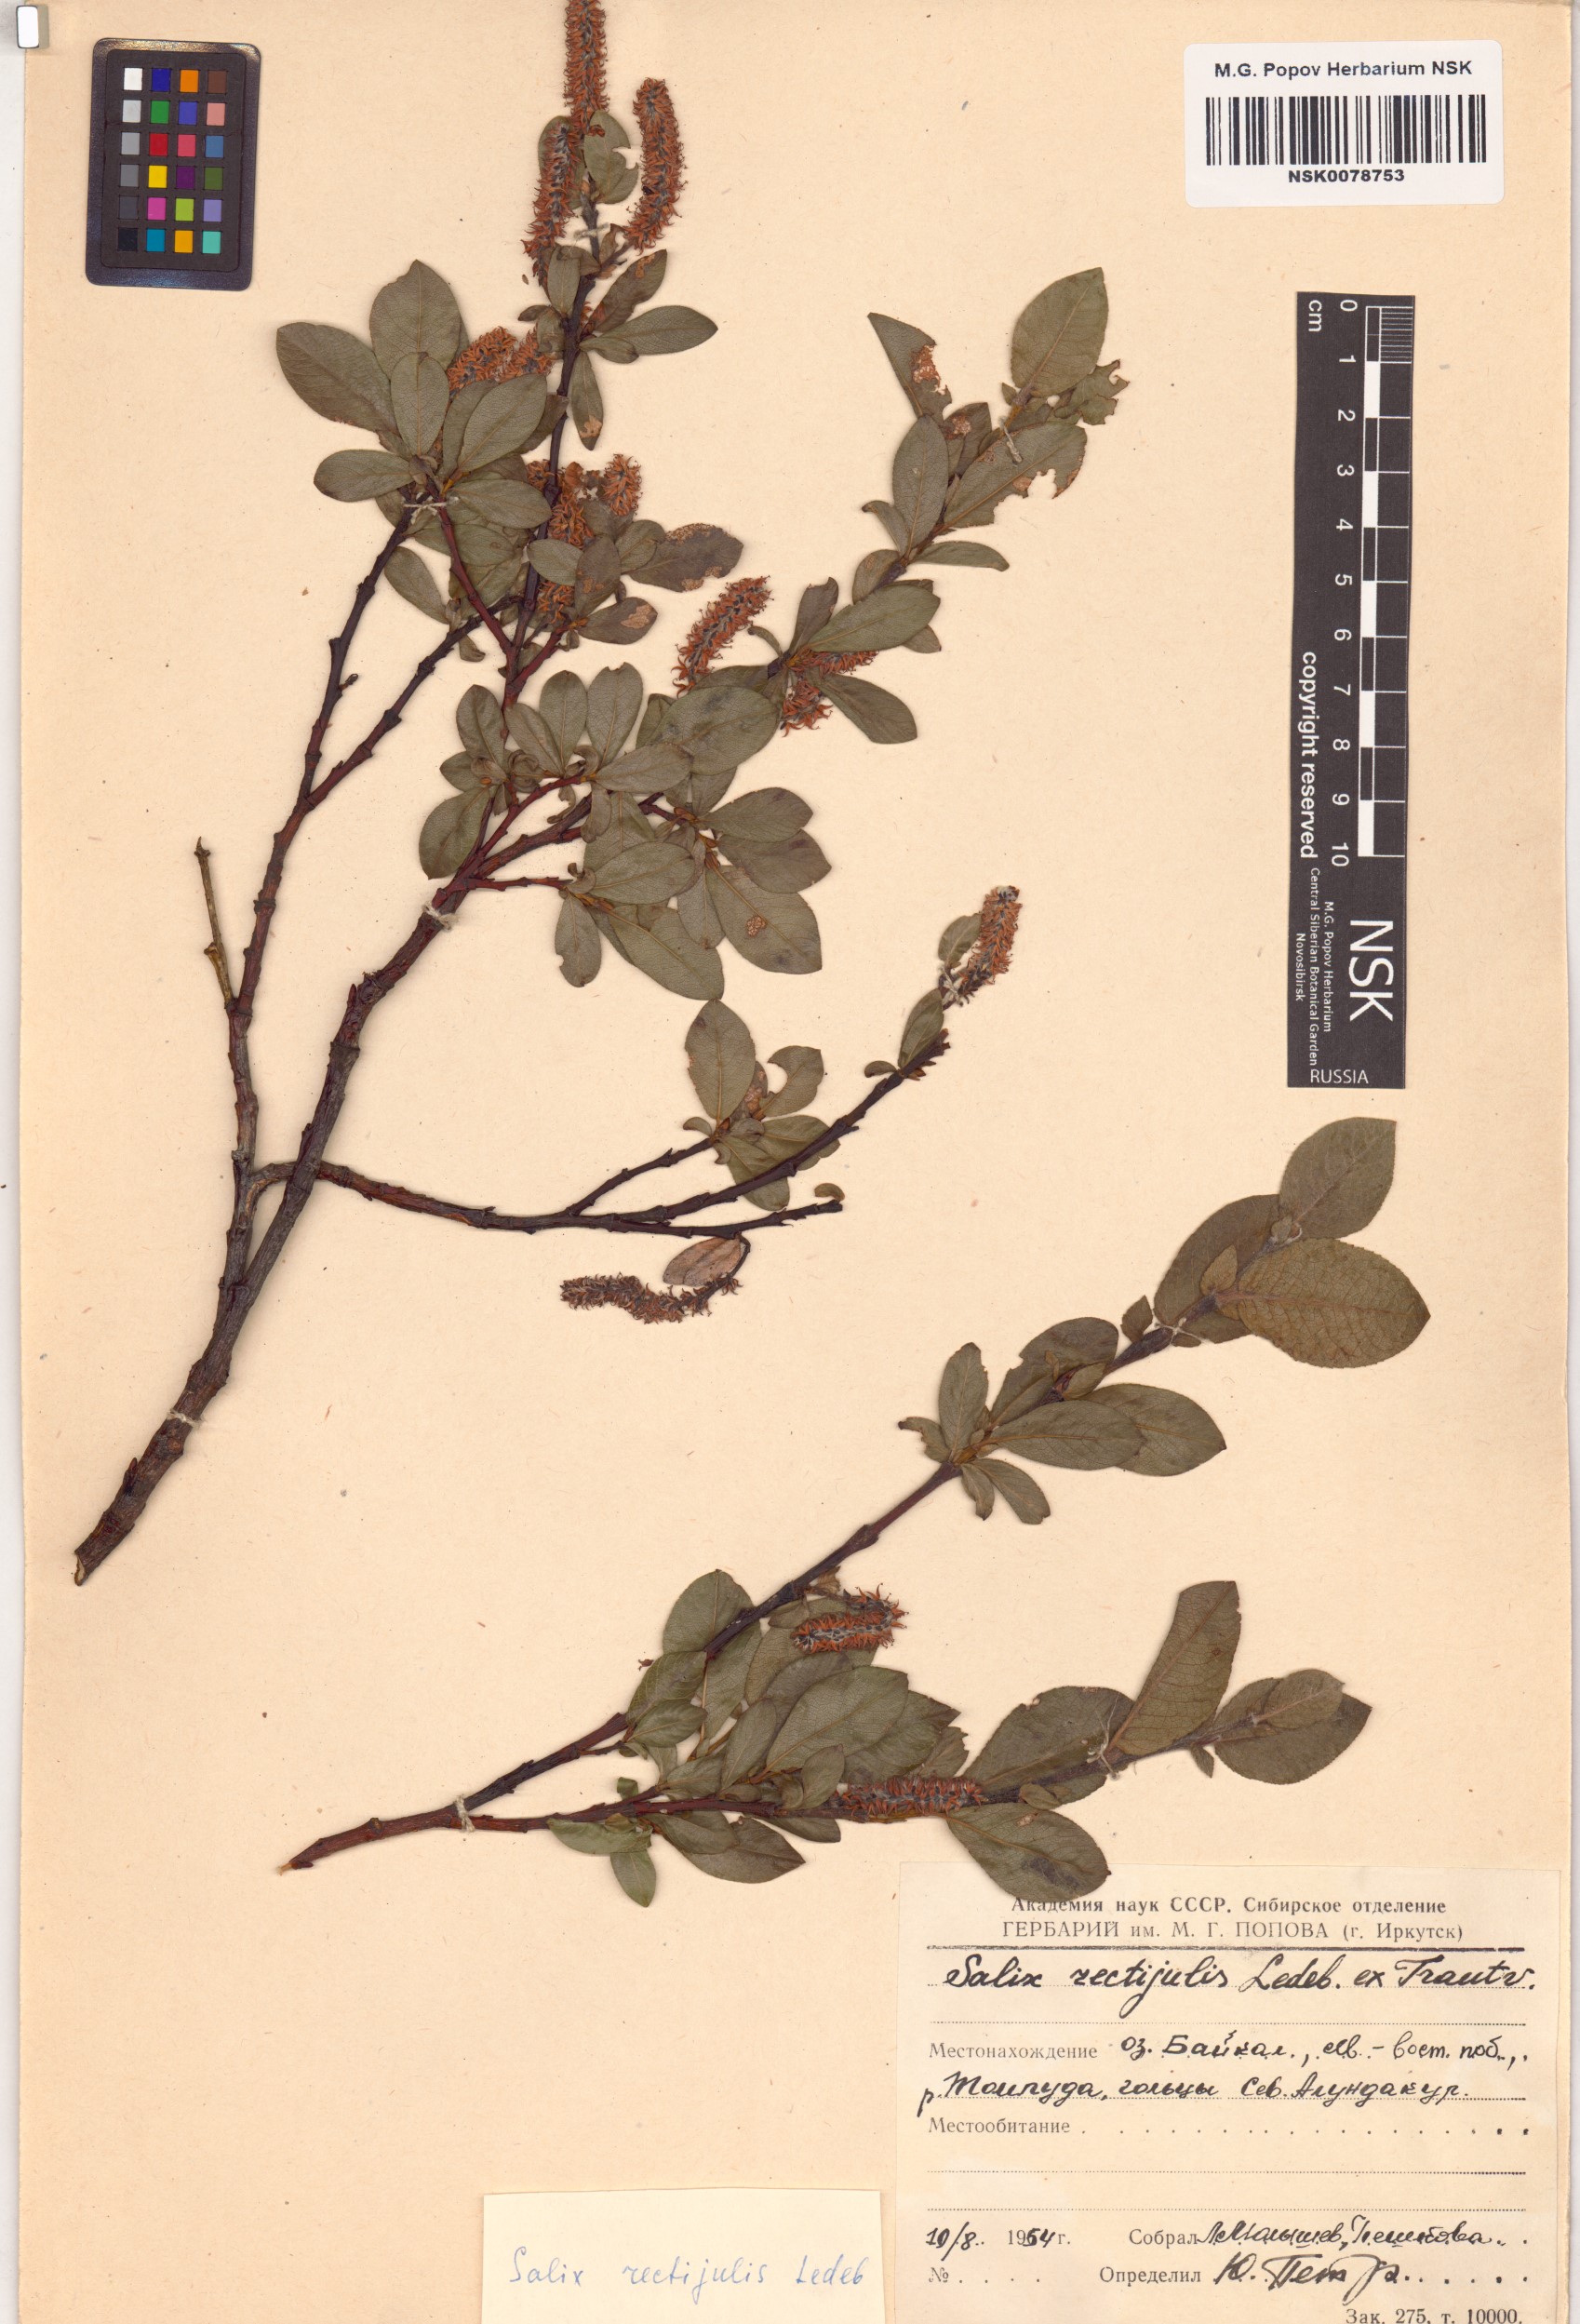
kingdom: Plantae
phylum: Tracheophyta
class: Magnoliopsida
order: Malpighiales
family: Salicaceae
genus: Salix
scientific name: Salix rectijulis
